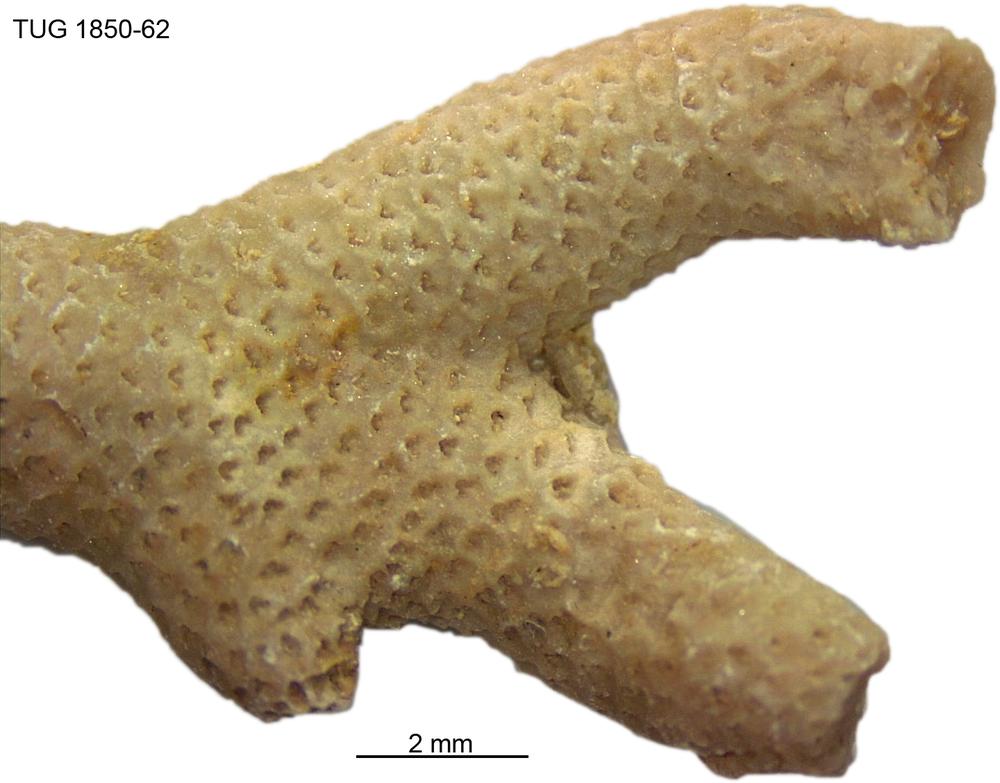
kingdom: Animalia
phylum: Cnidaria
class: Anthozoa
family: Coenitidae
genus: Coenites
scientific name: Coenites juniperinus
